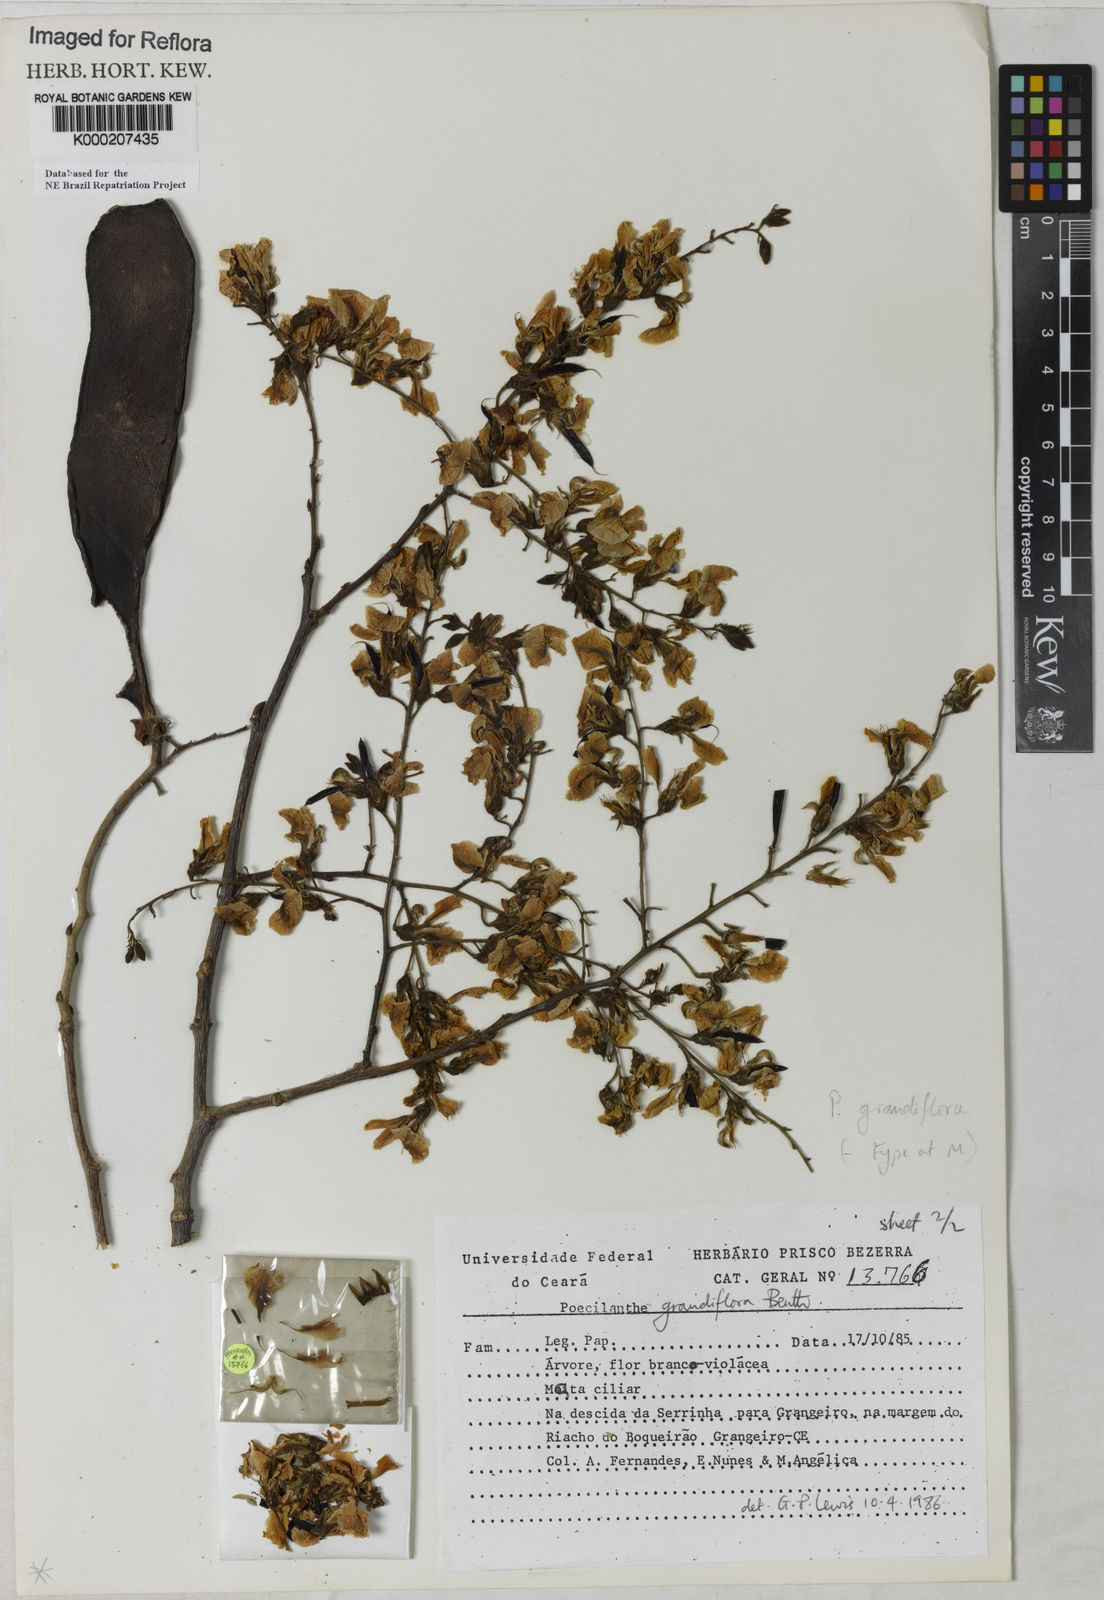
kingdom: Plantae
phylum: Tracheophyta
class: Magnoliopsida
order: Fabales
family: Fabaceae
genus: Poecilanthe
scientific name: Poecilanthe grandiflora
